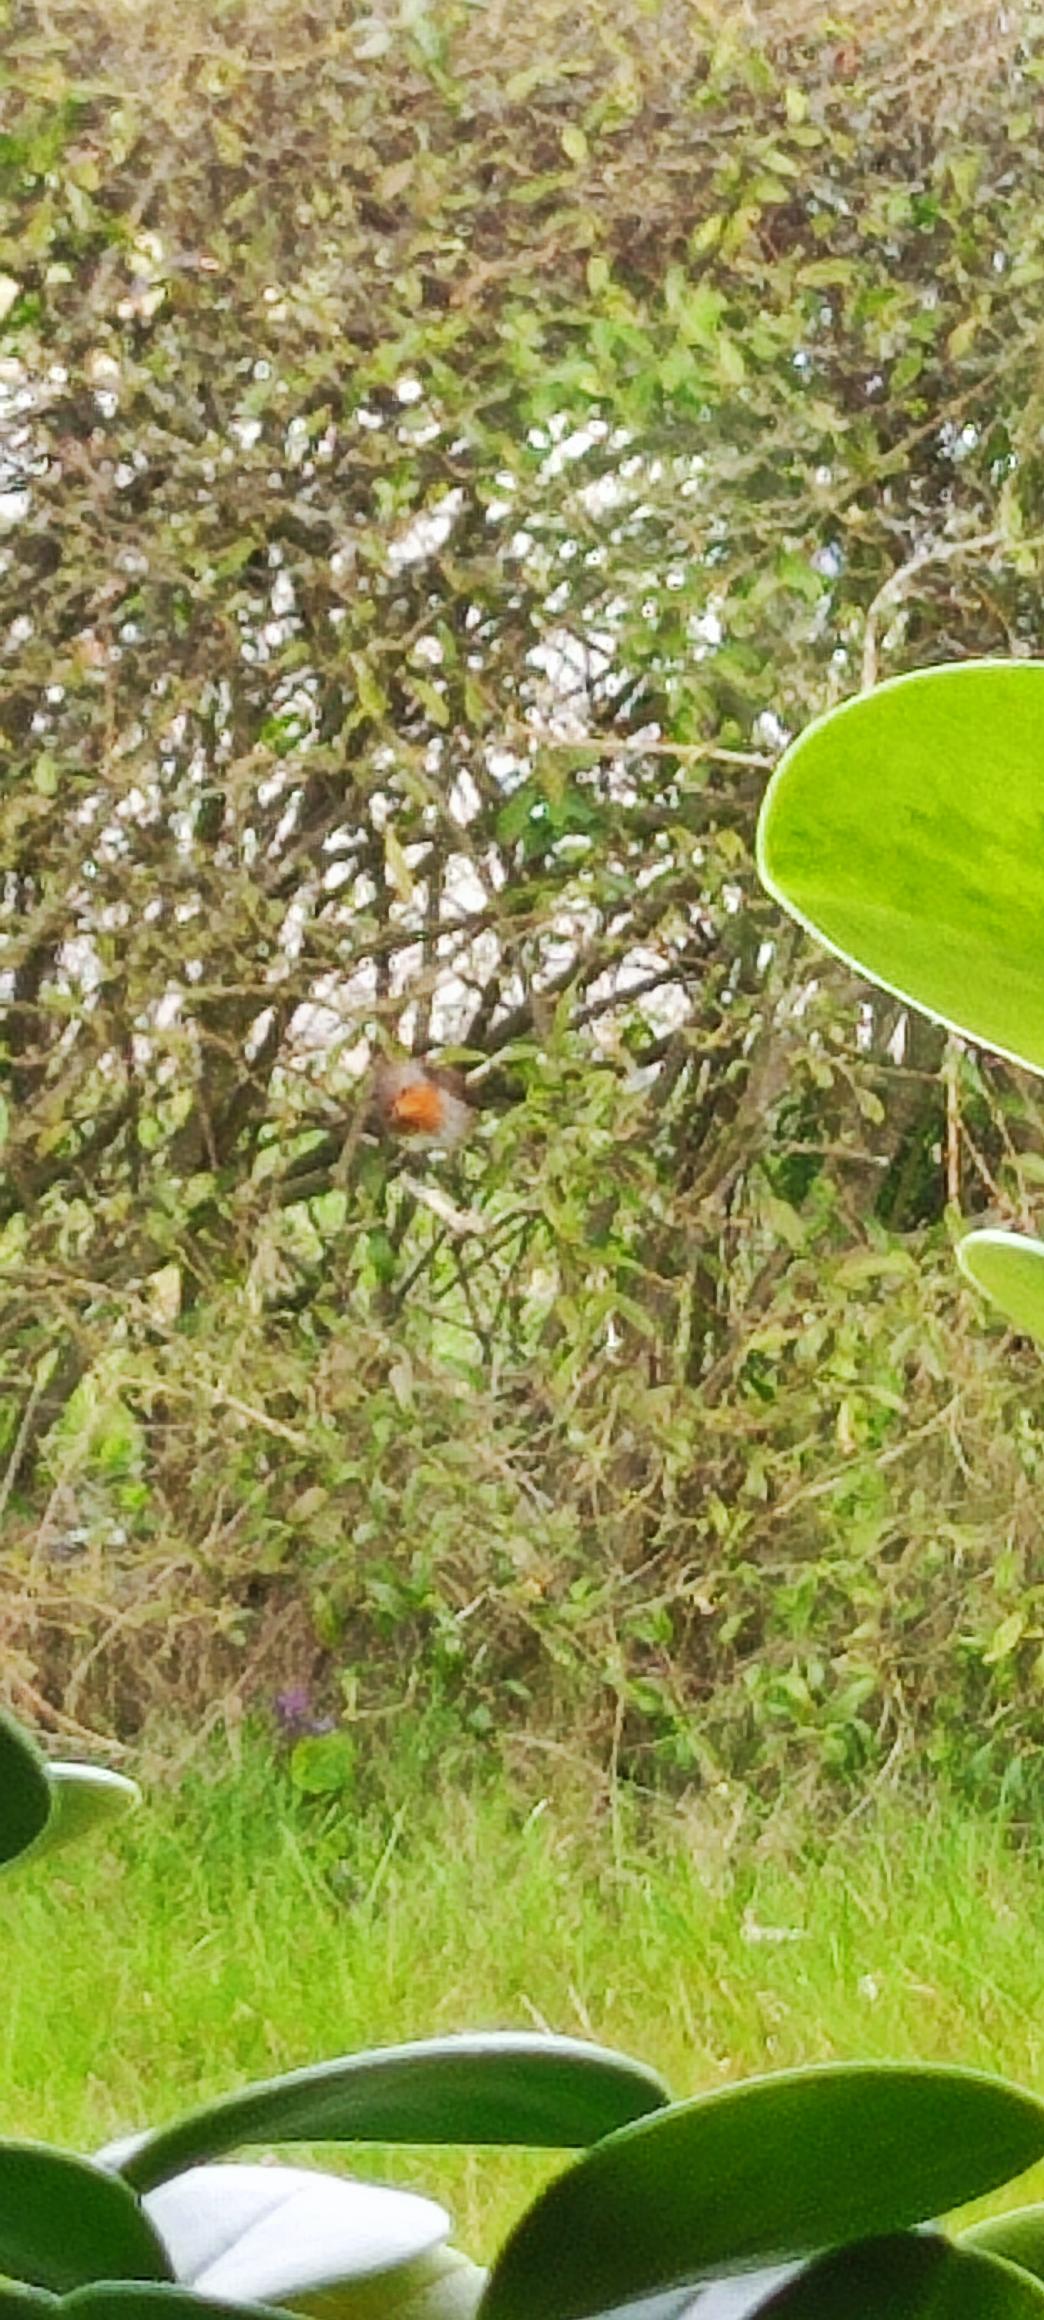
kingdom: Animalia
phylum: Chordata
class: Aves
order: Passeriformes
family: Muscicapidae
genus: Erithacus
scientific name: Erithacus rubecula
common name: Rødhals/rødkælk
